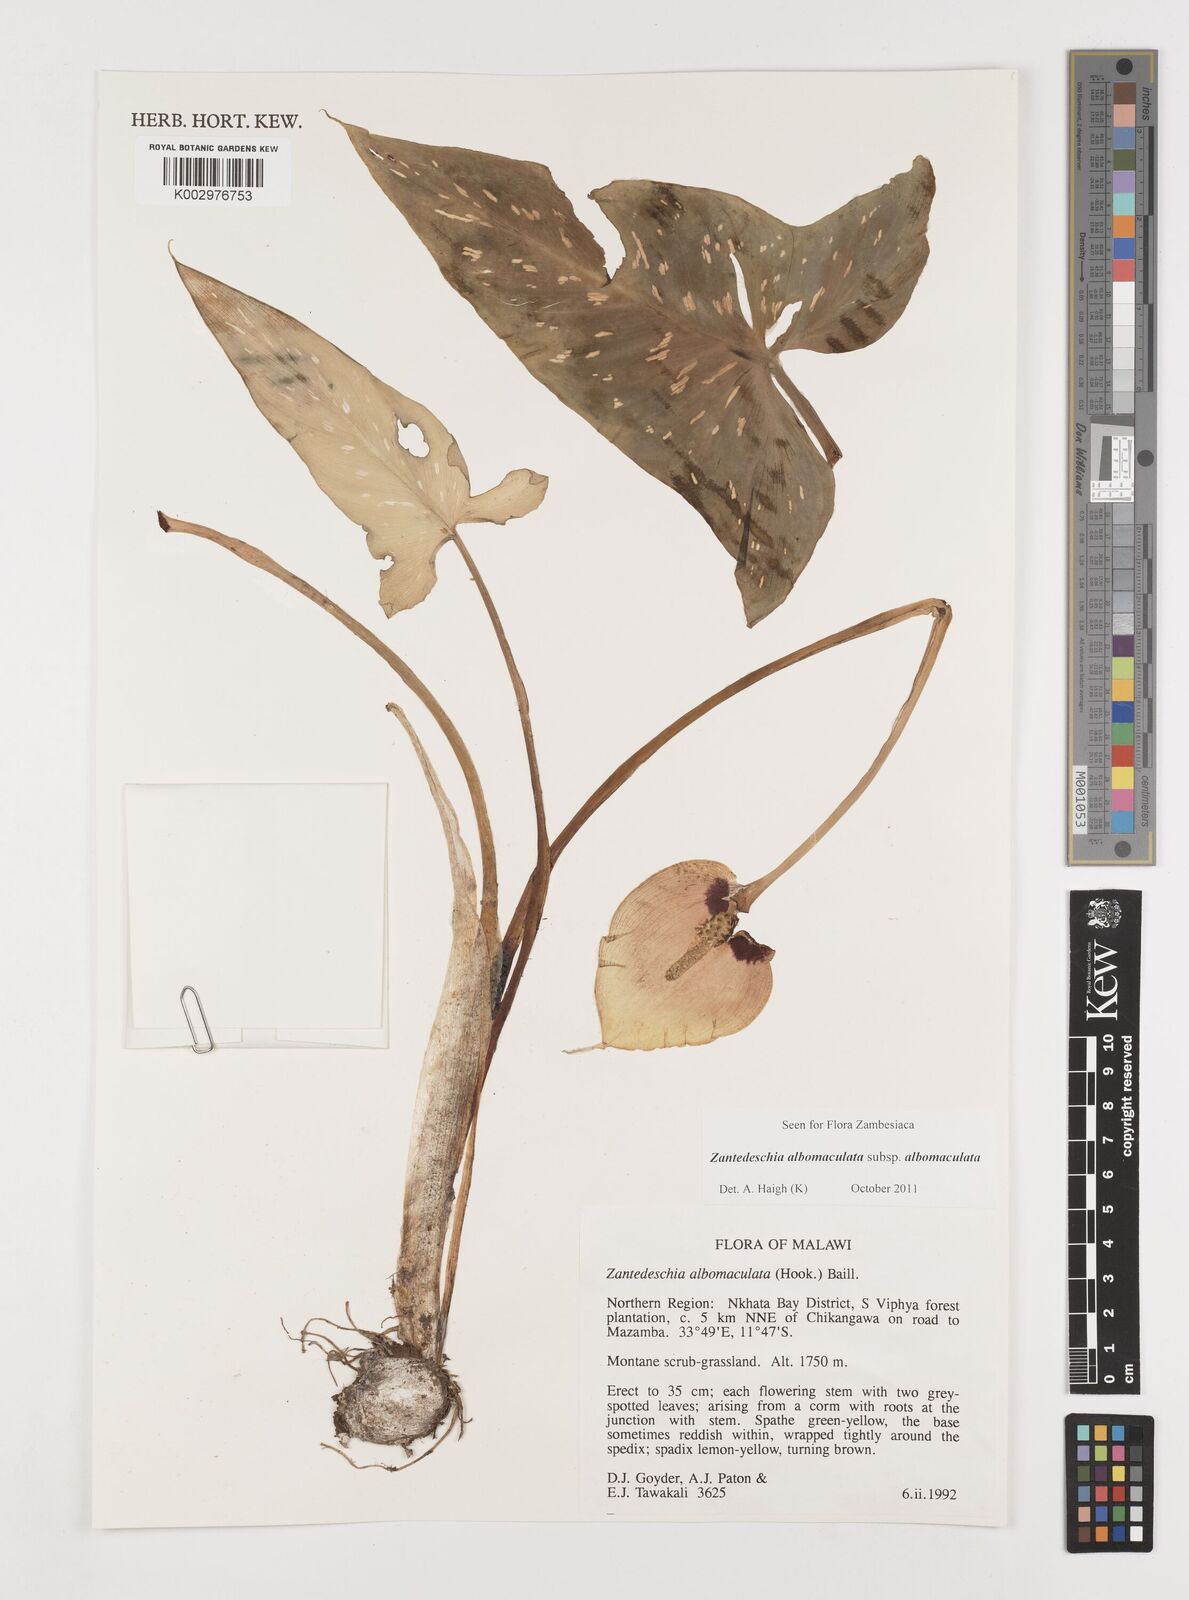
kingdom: Plantae
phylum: Tracheophyta
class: Liliopsida
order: Alismatales
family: Araceae
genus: Zantedeschia
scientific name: Zantedeschia albomaculata
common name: Spotted calla lily
